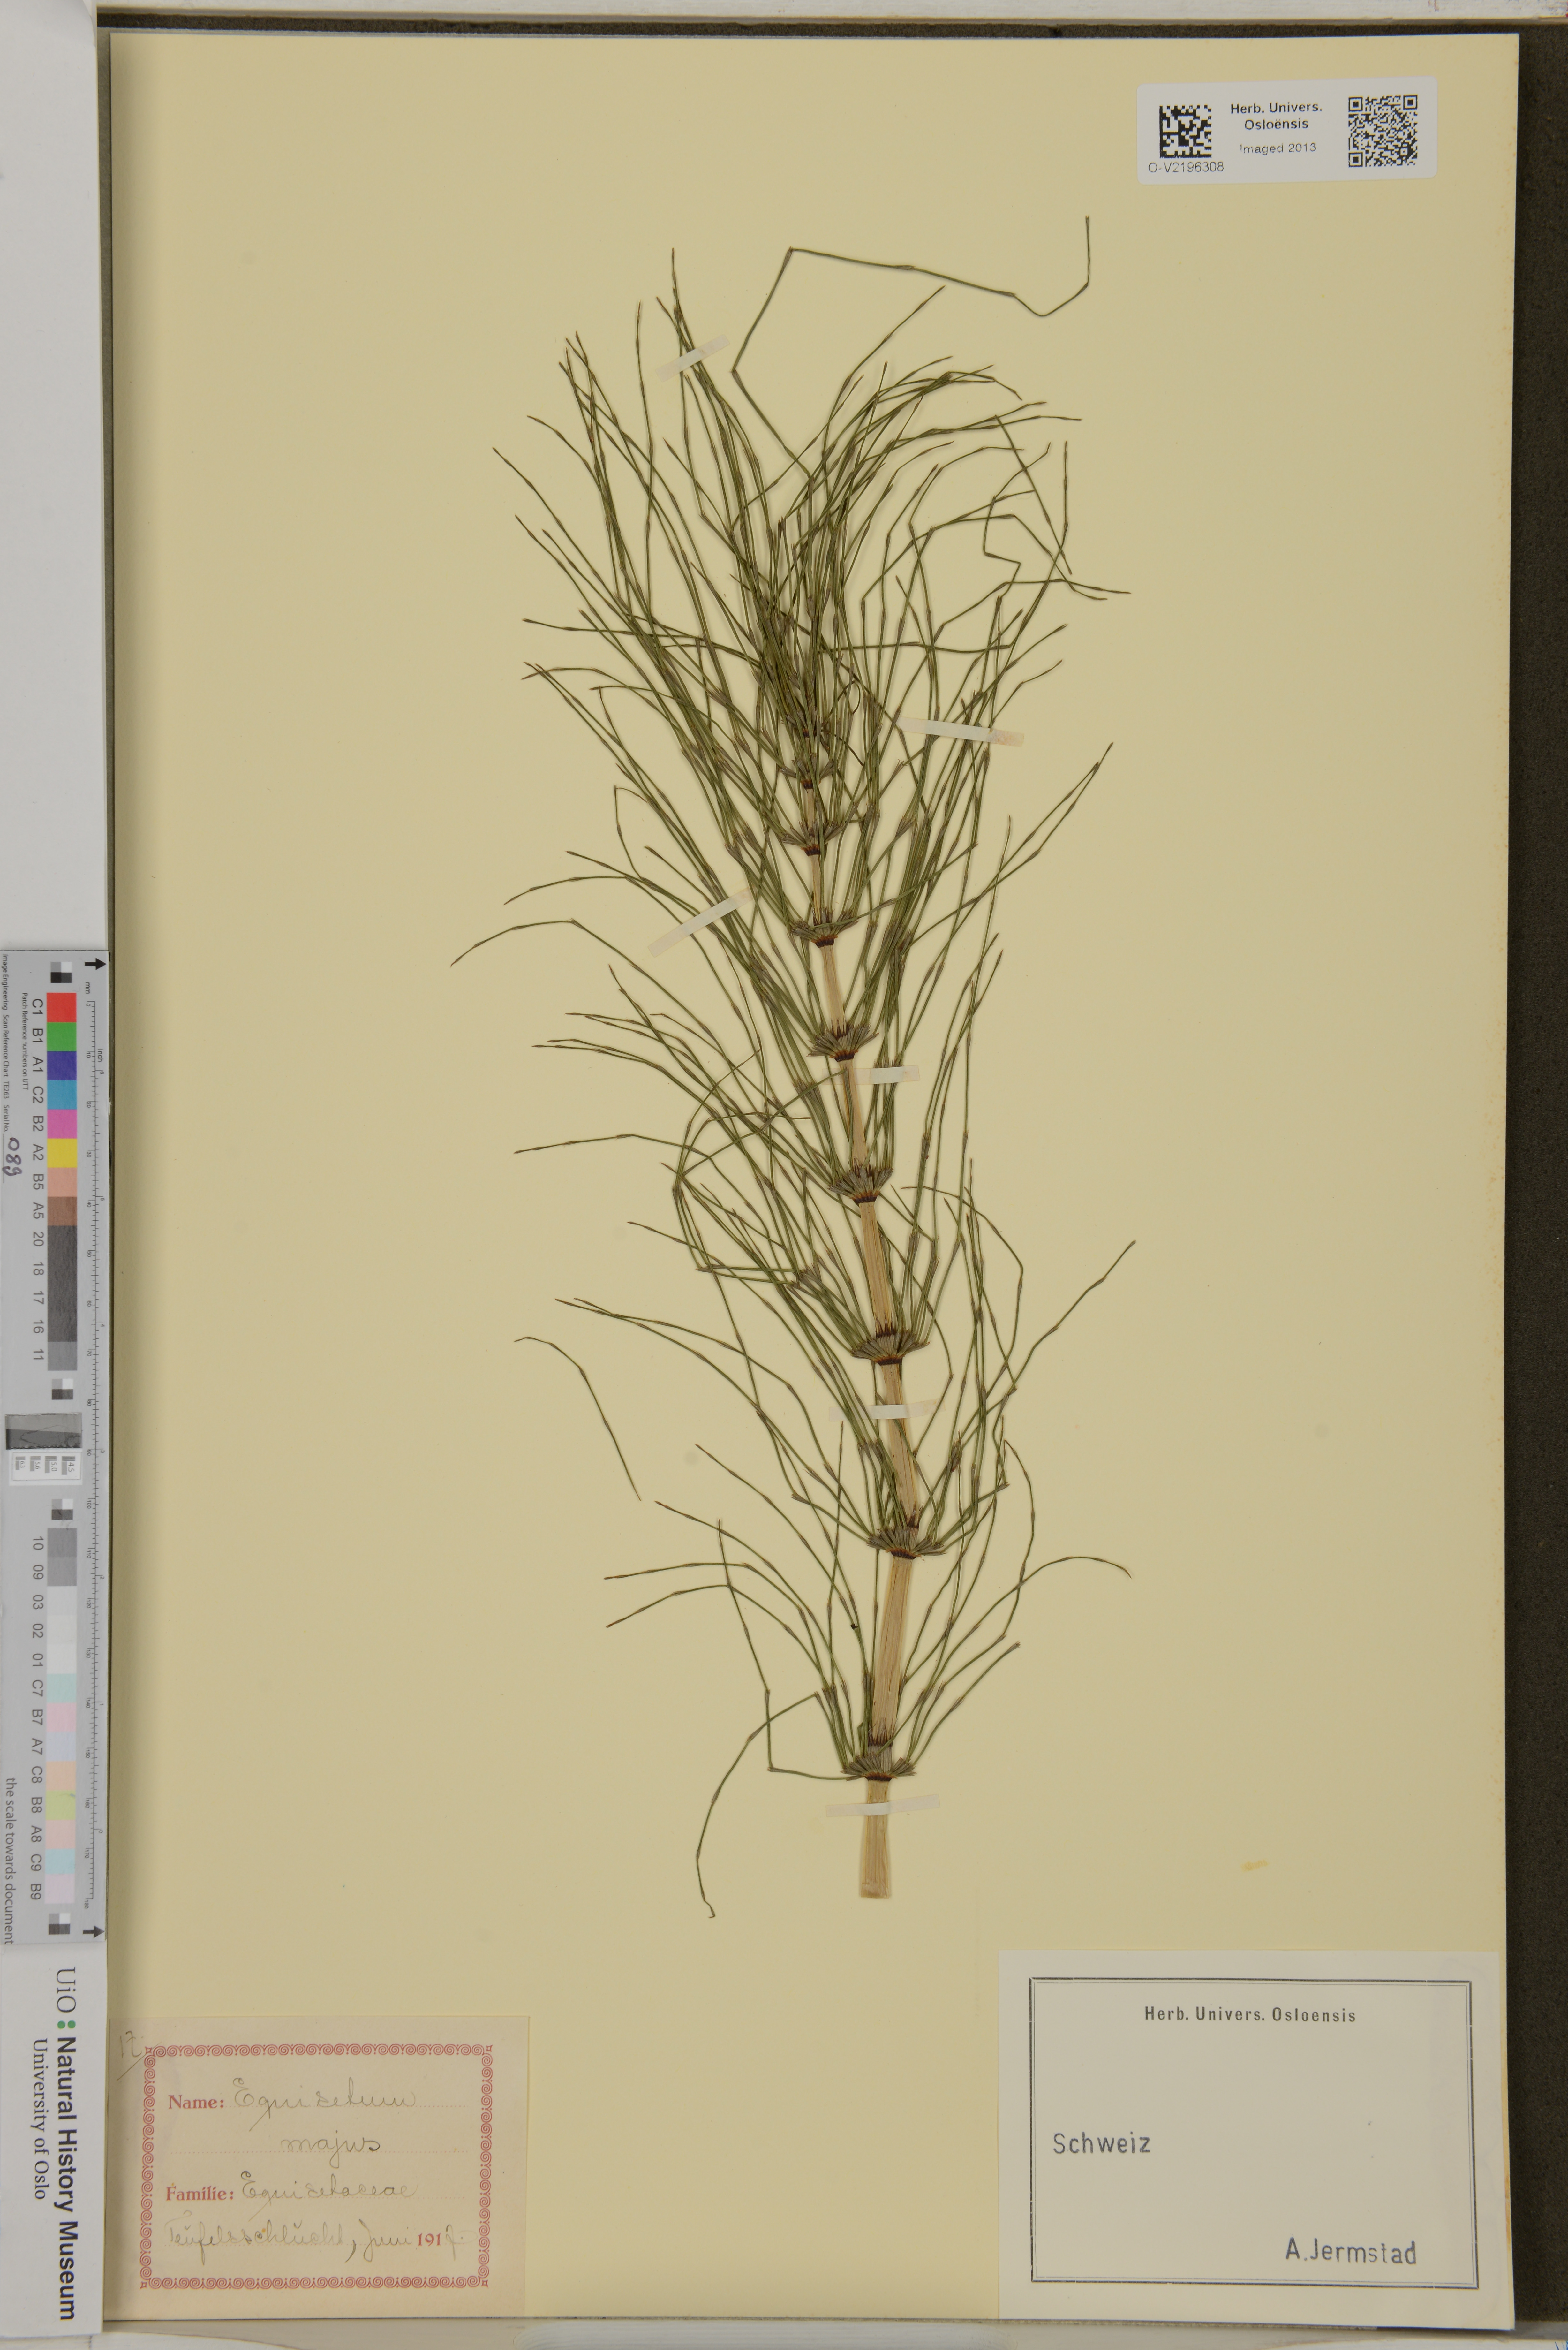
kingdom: Plantae
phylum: Tracheophyta
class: Polypodiopsida
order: Equisetales
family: Equisetaceae
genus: Equisetum
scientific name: Equisetum telmateia
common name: Great horsetail
